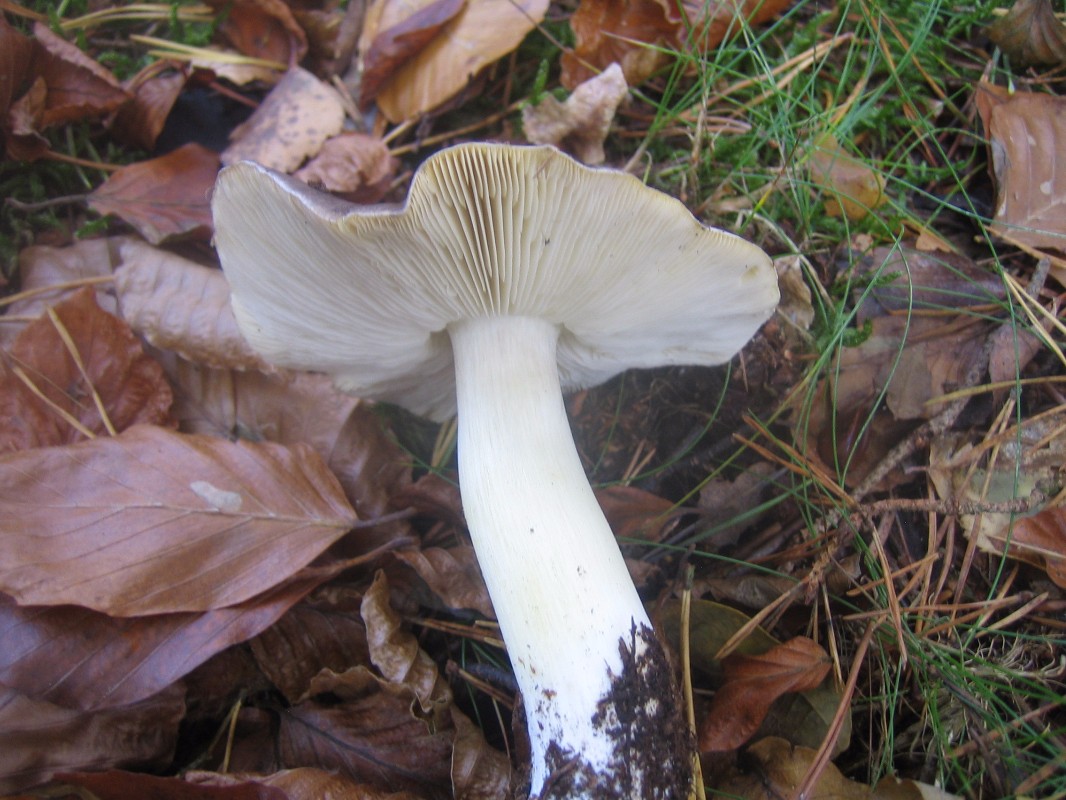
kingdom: Fungi
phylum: Basidiomycota
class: Agaricomycetes
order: Agaricales
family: Tricholomataceae
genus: Tricholoma
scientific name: Tricholoma portentosum
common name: grå ridderhat
